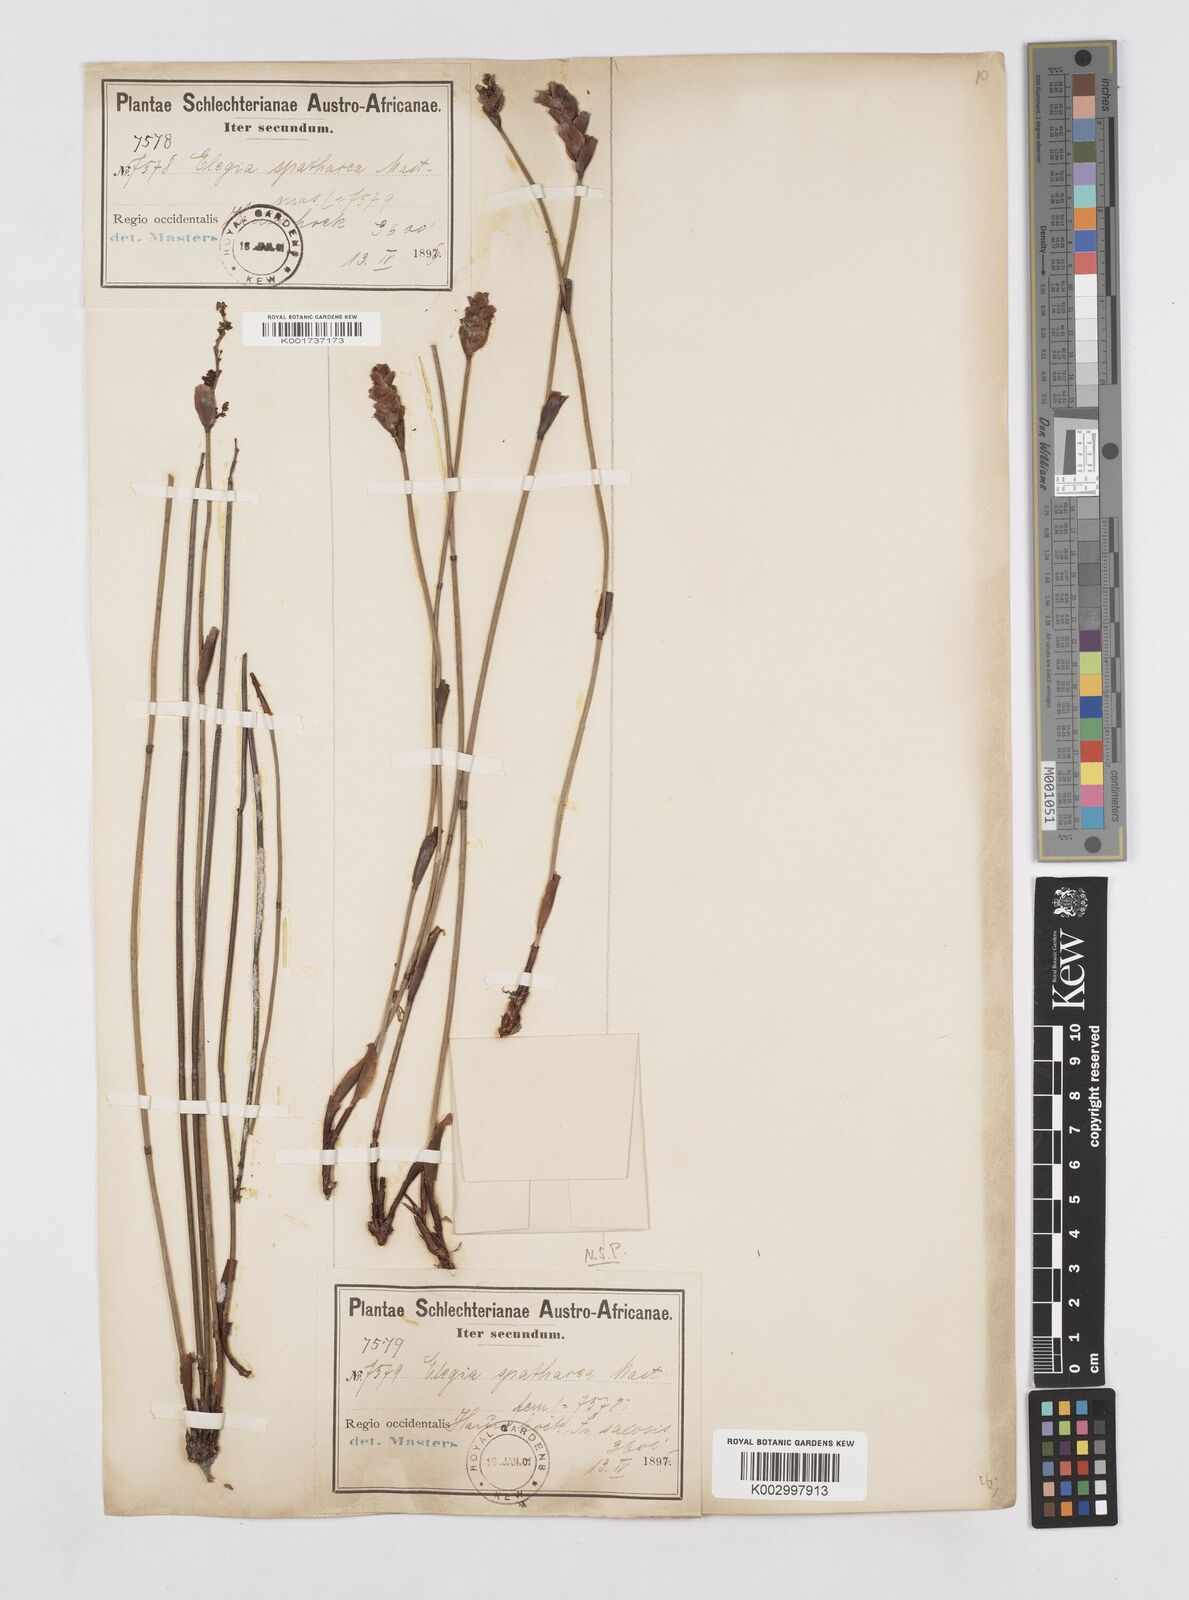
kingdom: Plantae
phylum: Tracheophyta
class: Liliopsida
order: Poales
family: Restionaceae
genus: Elegia
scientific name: Elegia spathacea
